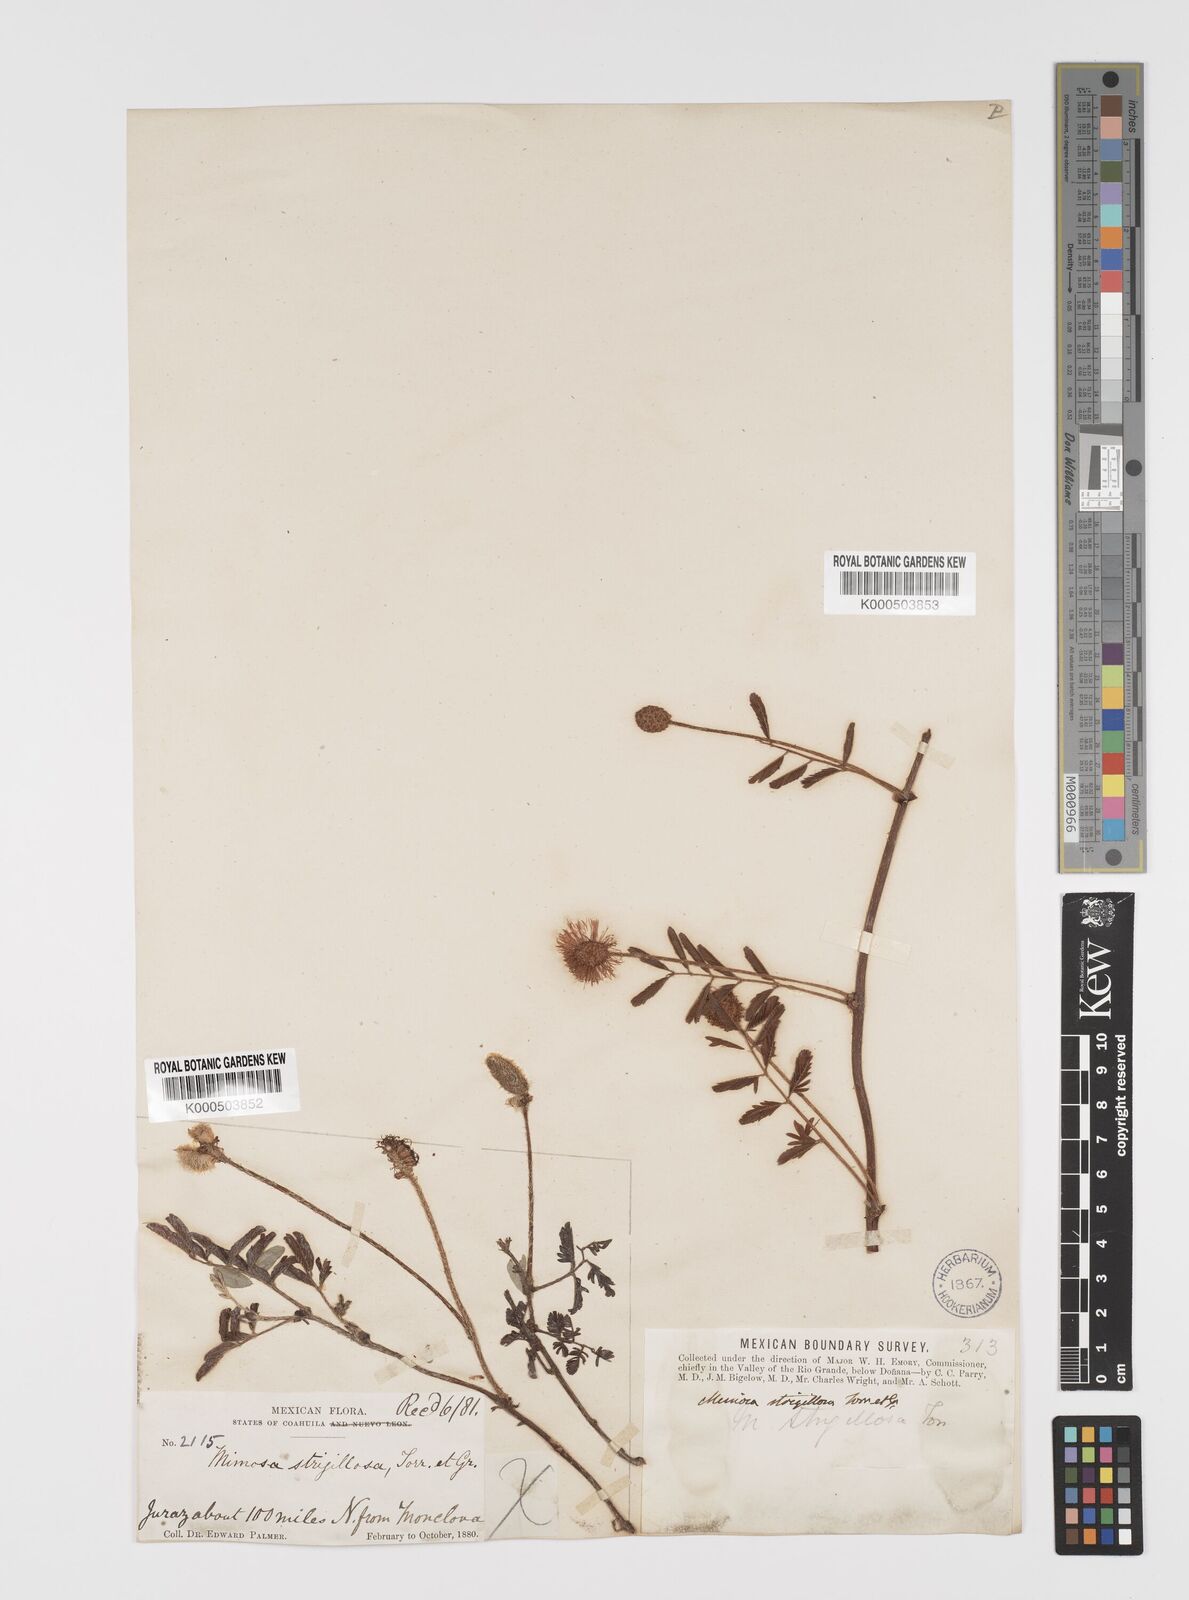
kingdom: Plantae
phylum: Tracheophyta
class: Magnoliopsida
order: Fabales
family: Fabaceae
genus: Mimosa
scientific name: Mimosa strigillosa
